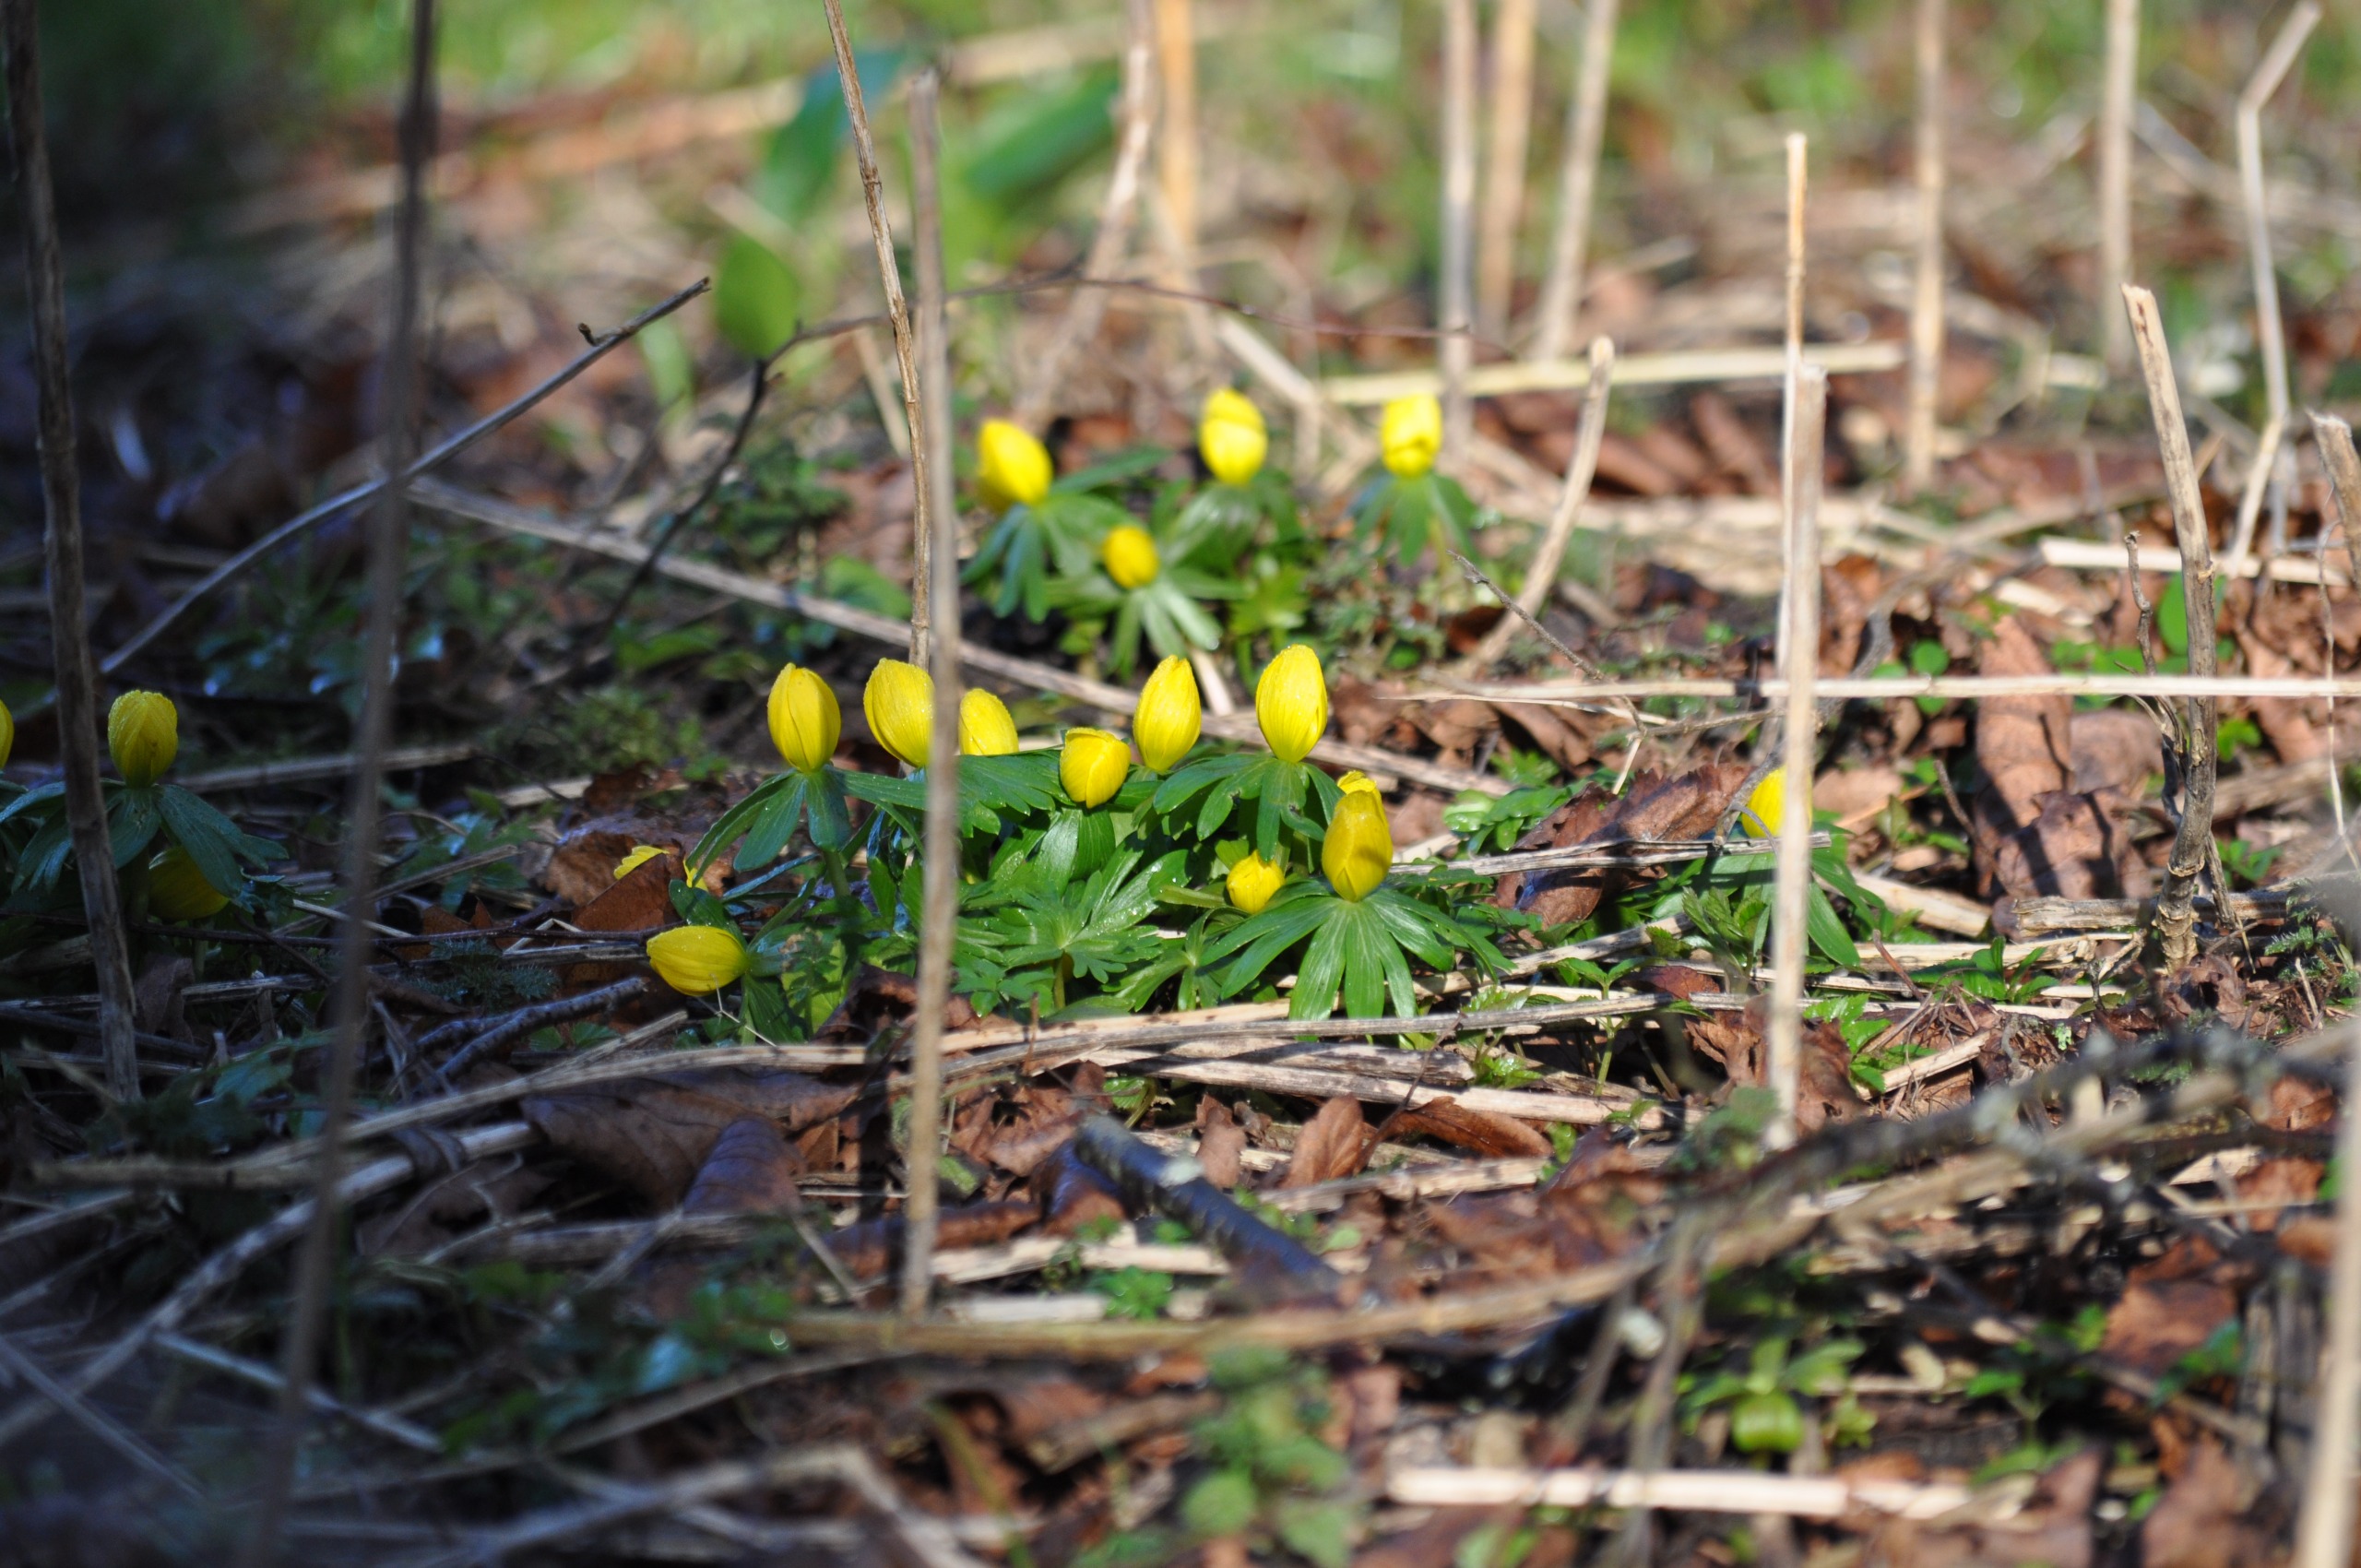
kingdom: Plantae
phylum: Tracheophyta
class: Magnoliopsida
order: Ranunculales
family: Ranunculaceae
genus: Eranthis
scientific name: Eranthis hyemalis
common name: Erantis
